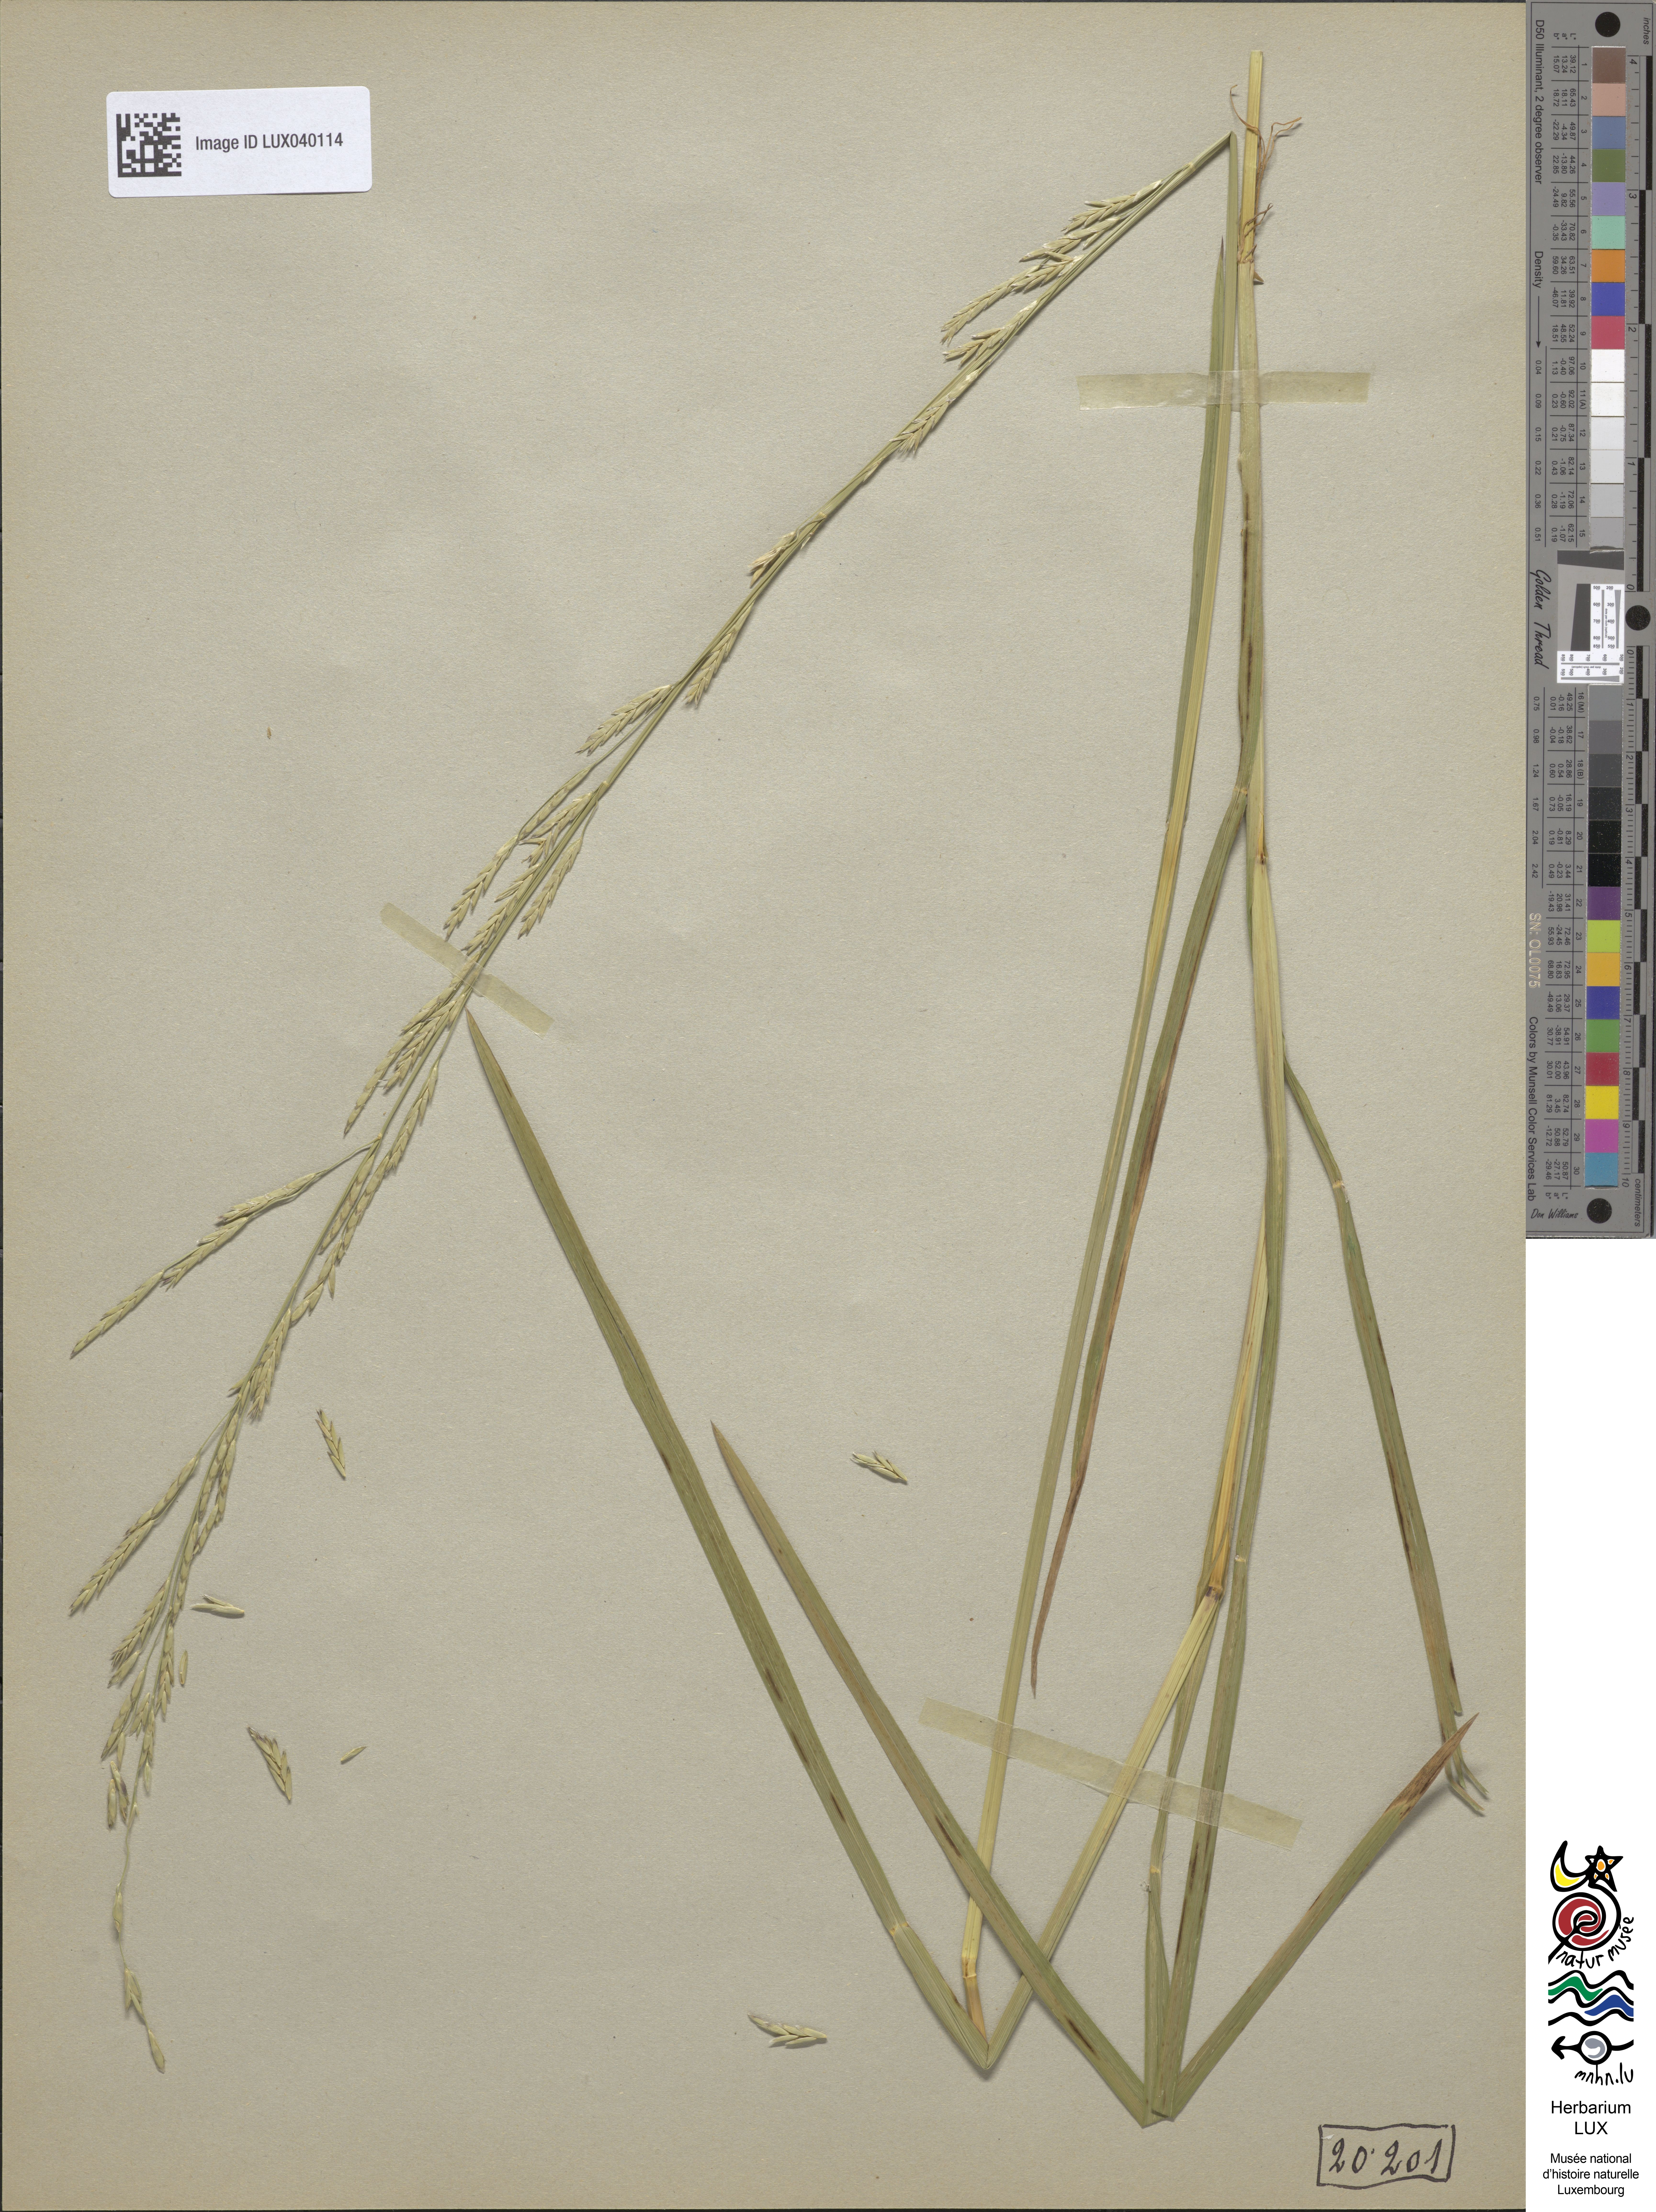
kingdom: Plantae
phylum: Tracheophyta
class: Liliopsida
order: Poales
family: Poaceae
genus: Glyceria
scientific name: Glyceria fluitans
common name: Floating sweet-grass
